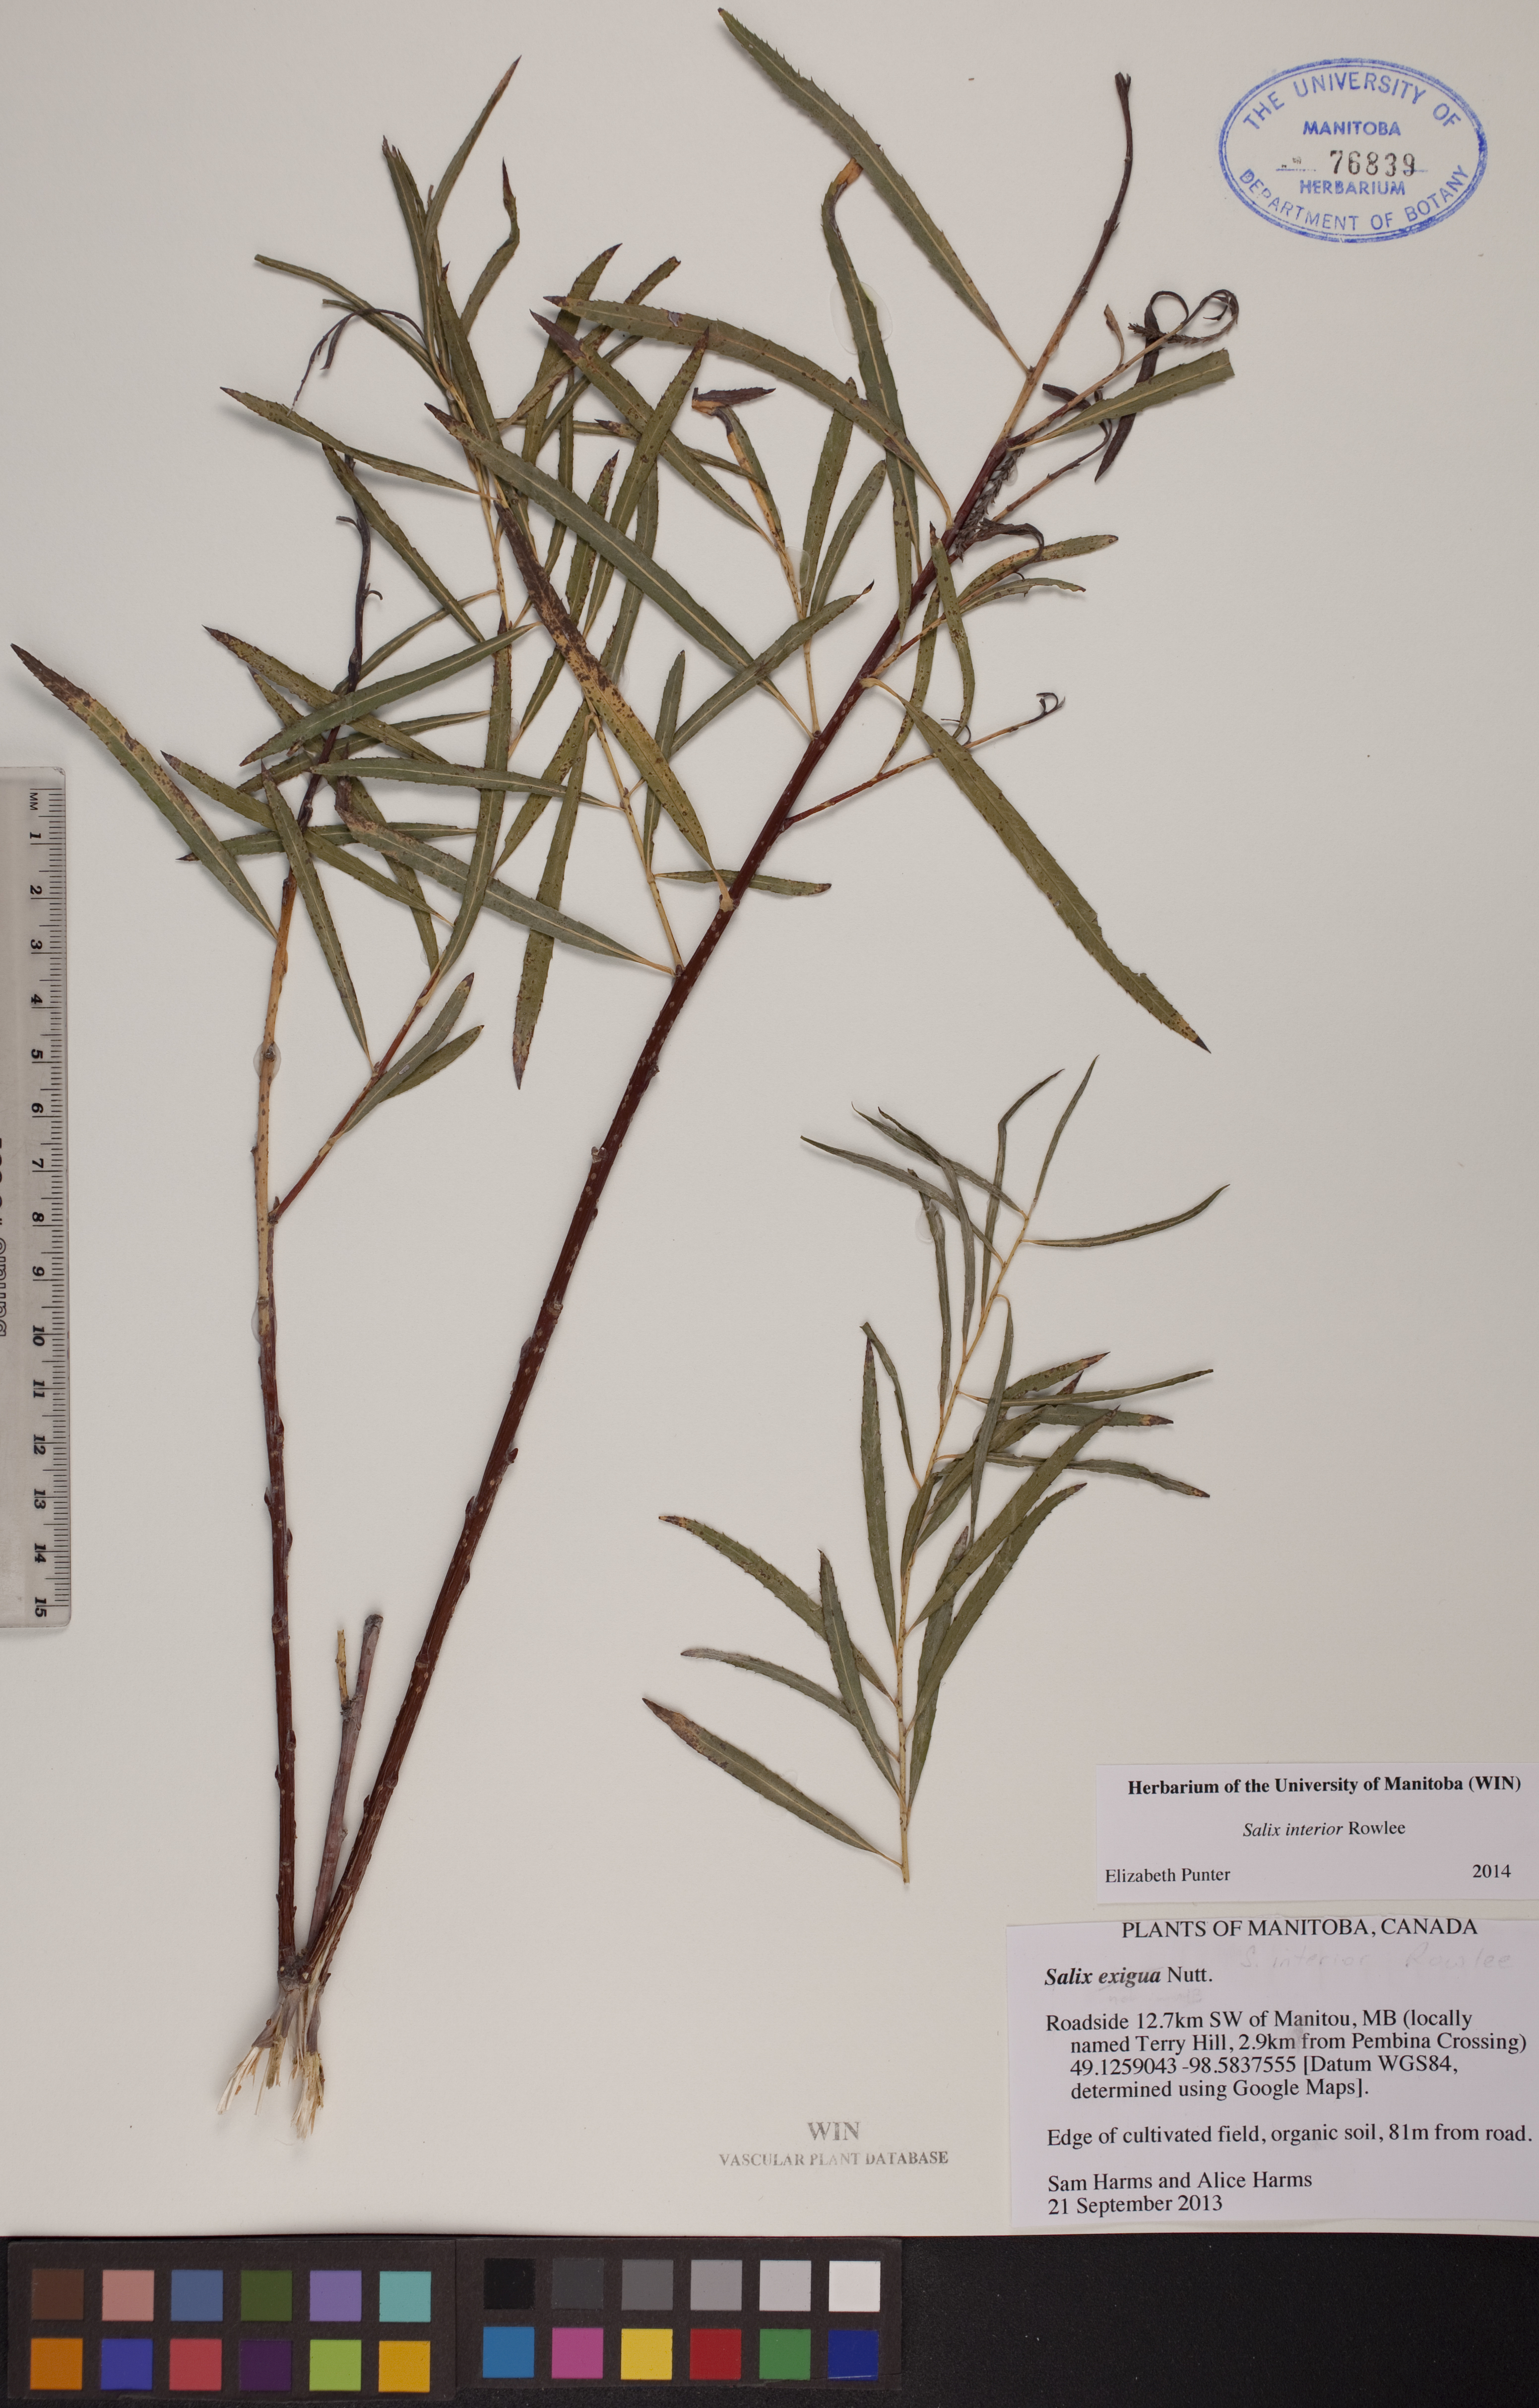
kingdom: Plantae
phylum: Tracheophyta
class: Magnoliopsida
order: Malpighiales
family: Salicaceae
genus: Salix
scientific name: Salix interior
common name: Sandbar willow
